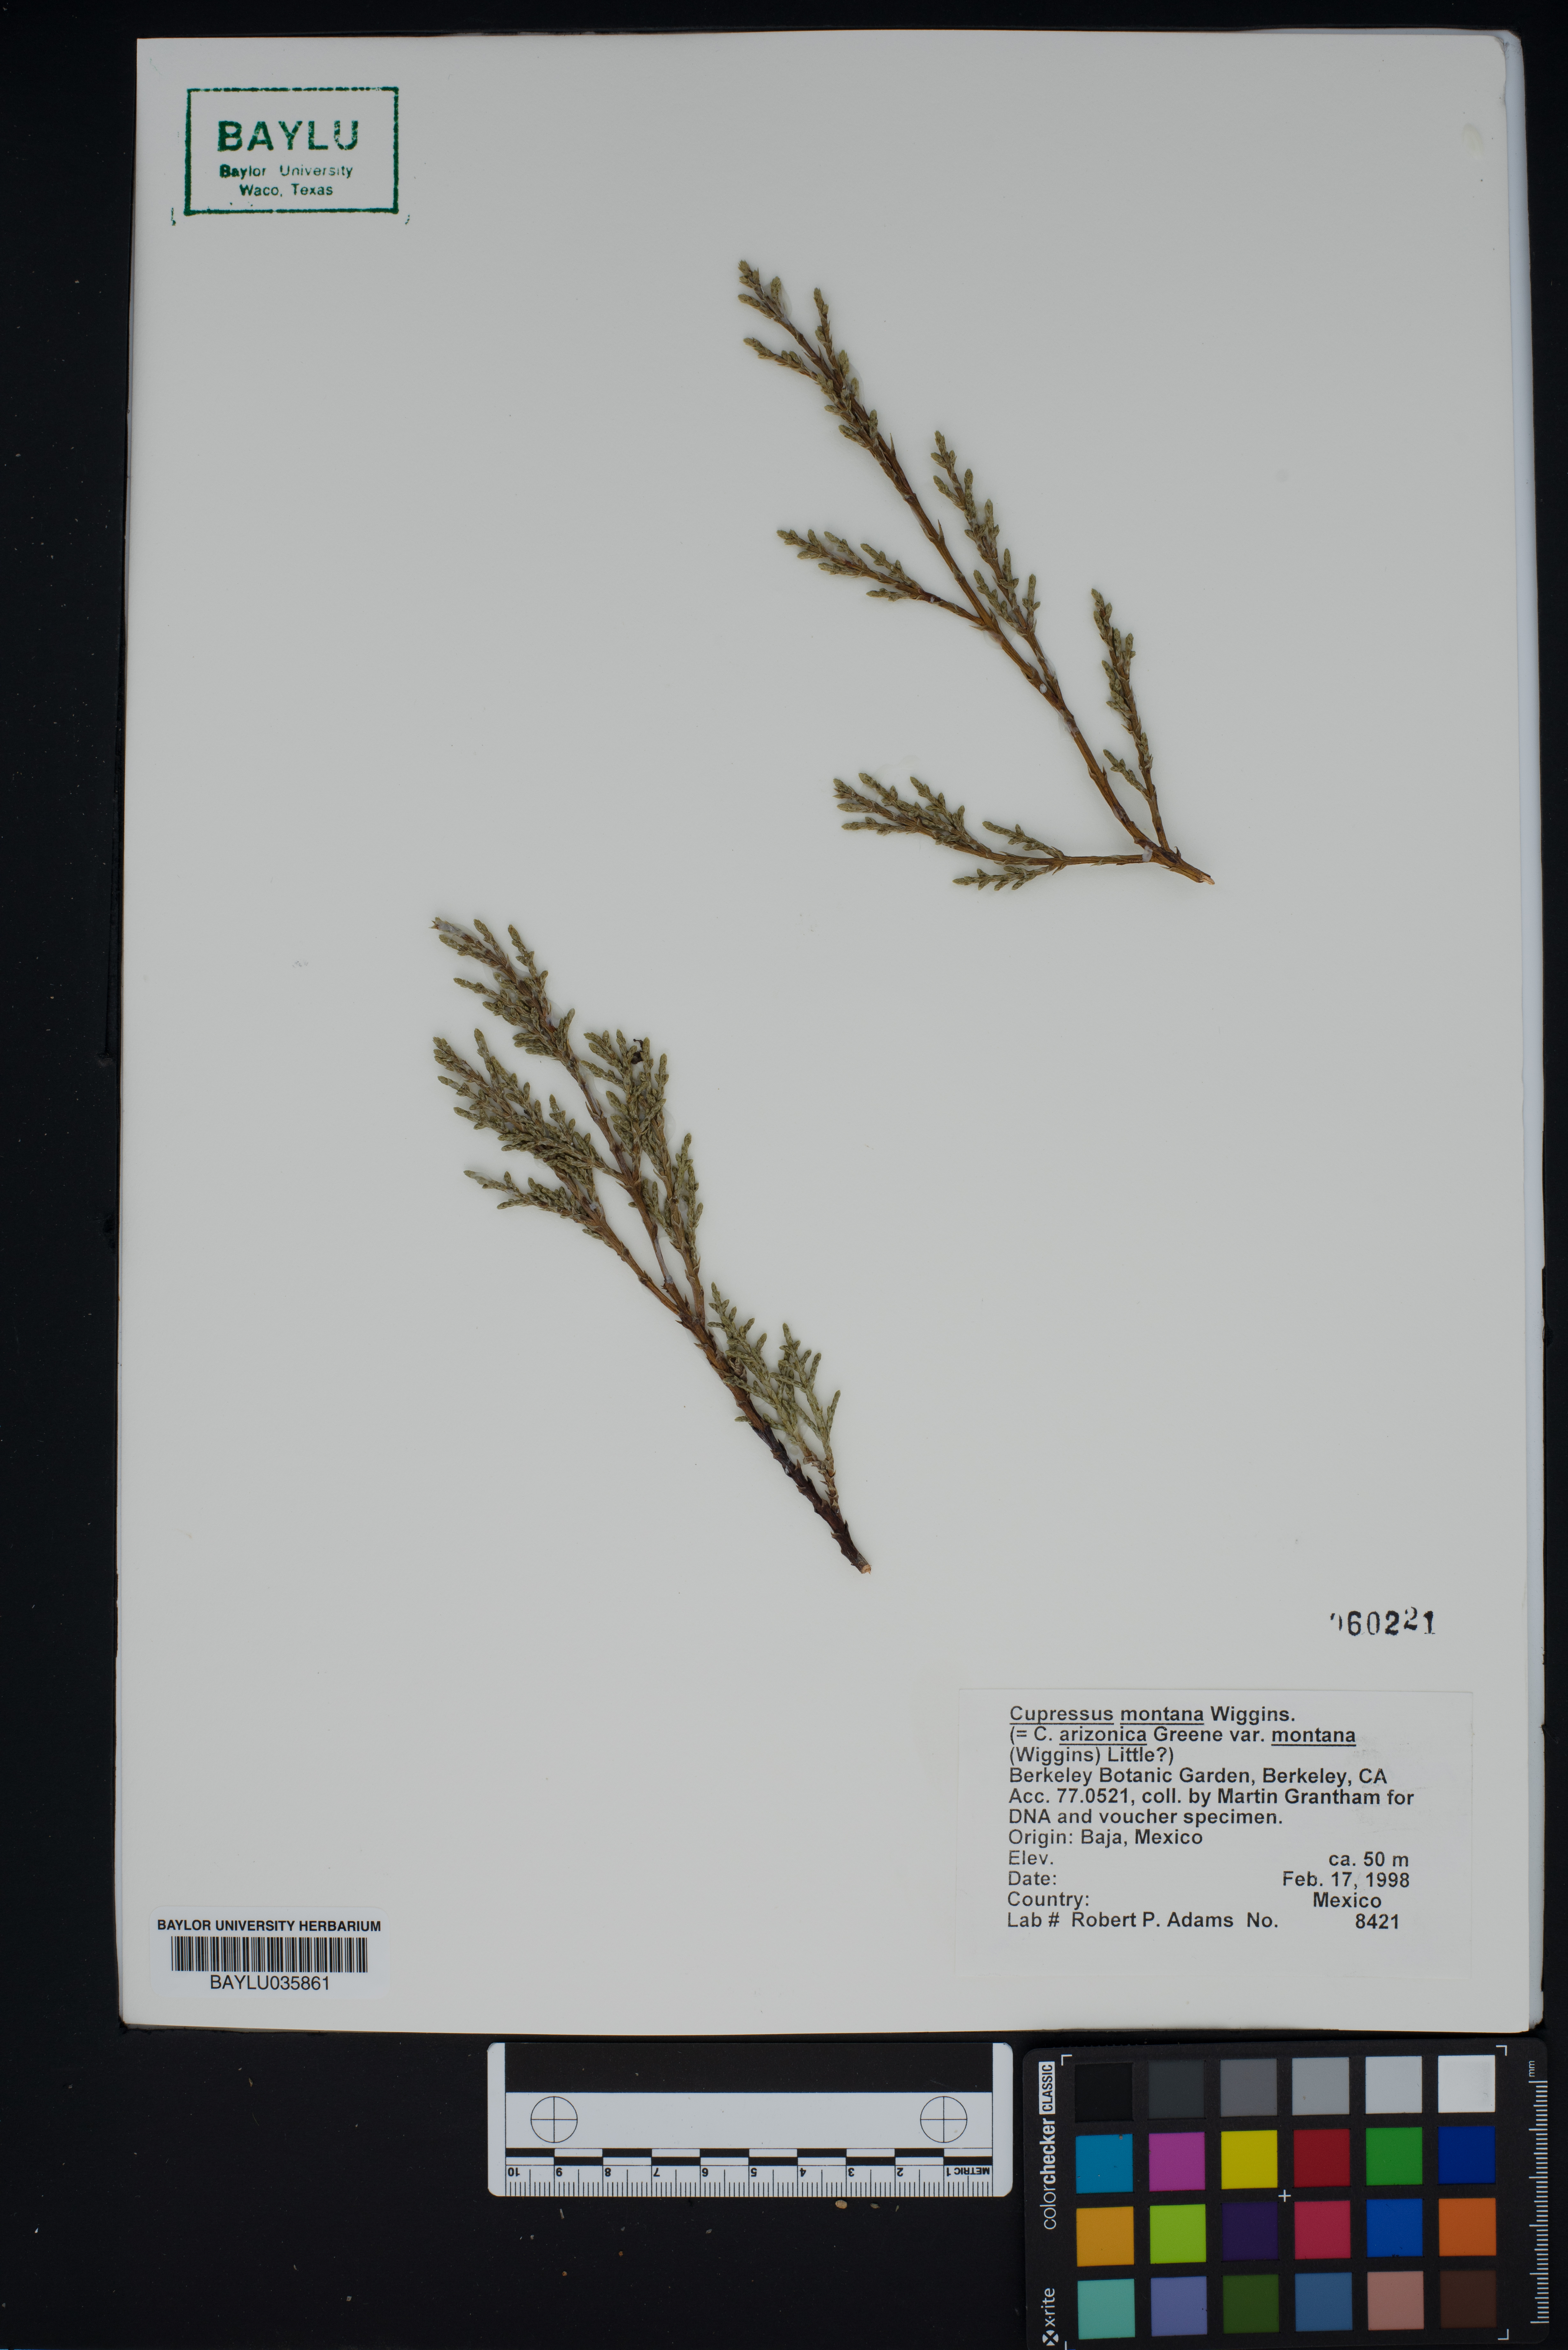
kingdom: Plantae
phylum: Tracheophyta
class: Pinopsida
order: Pinales
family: Cupressaceae
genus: Cupressus
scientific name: Cupressus arizonica
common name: Arizona cypress
